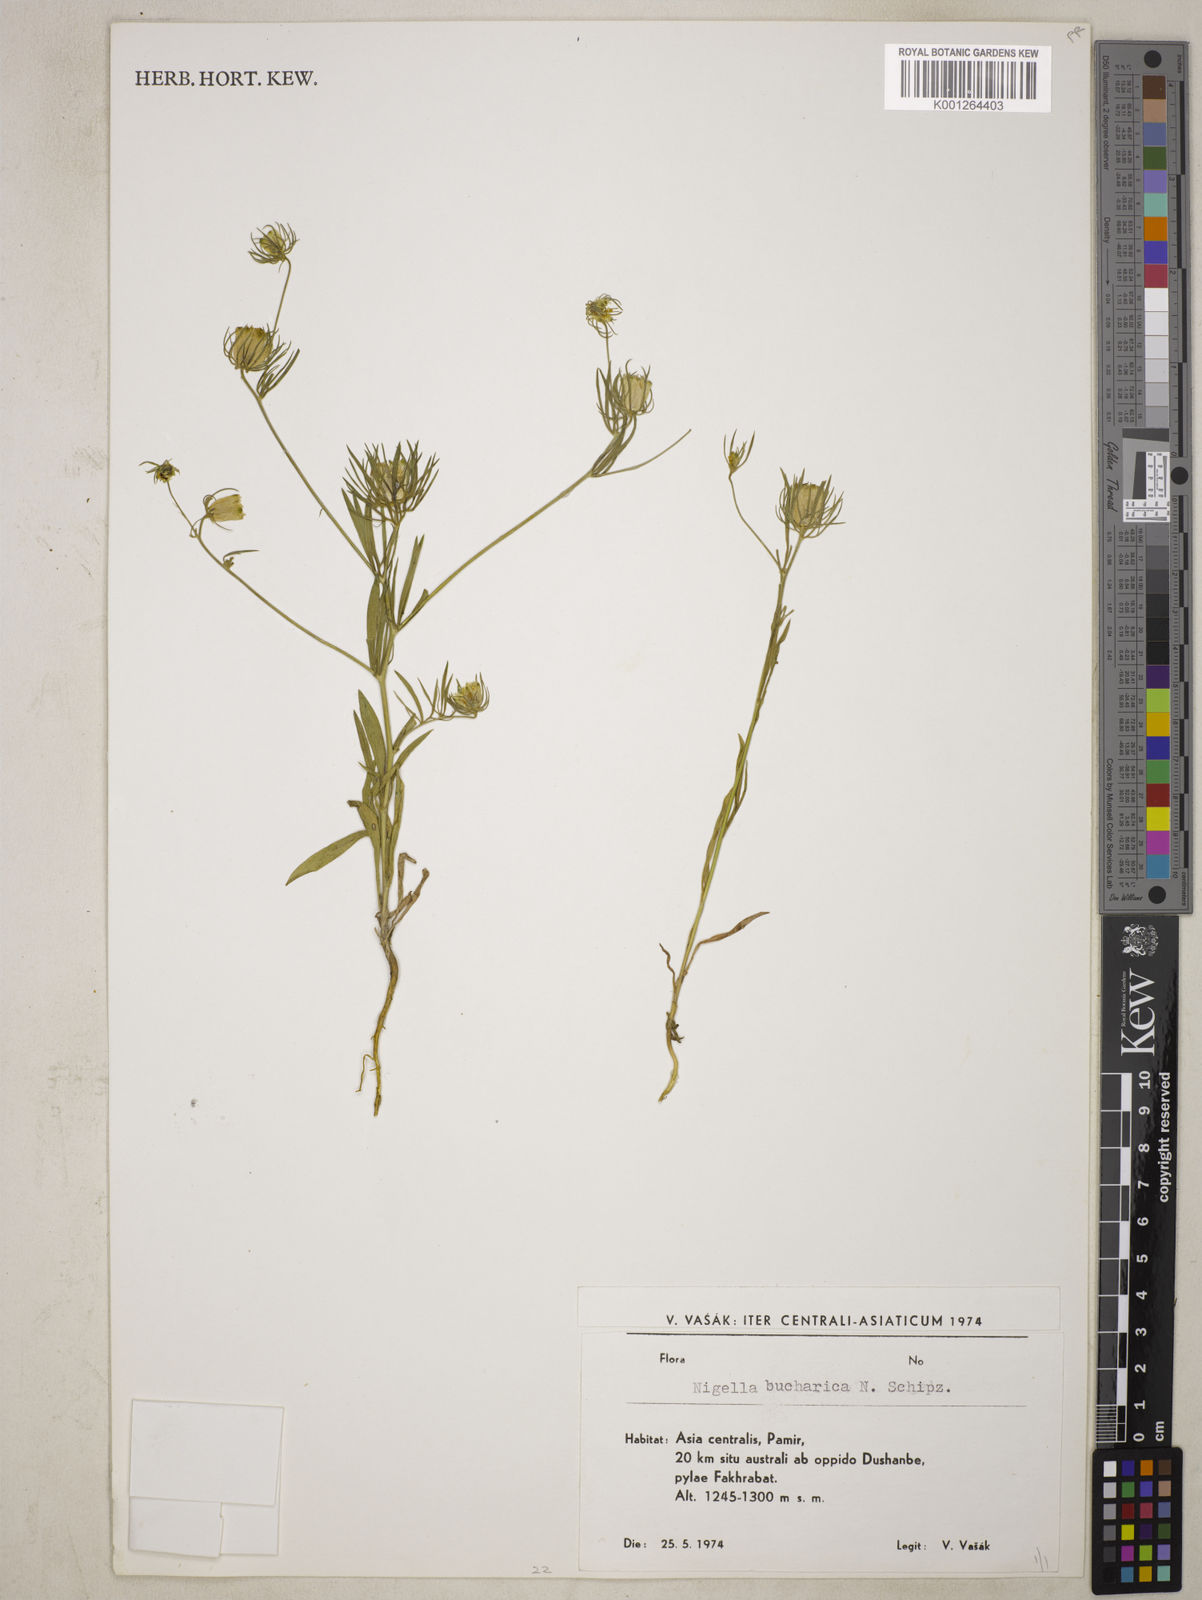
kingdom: Plantae
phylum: Tracheophyta
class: Magnoliopsida
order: Ranunculales
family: Ranunculaceae
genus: Komaroffia
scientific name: Komaroffia bucharica
